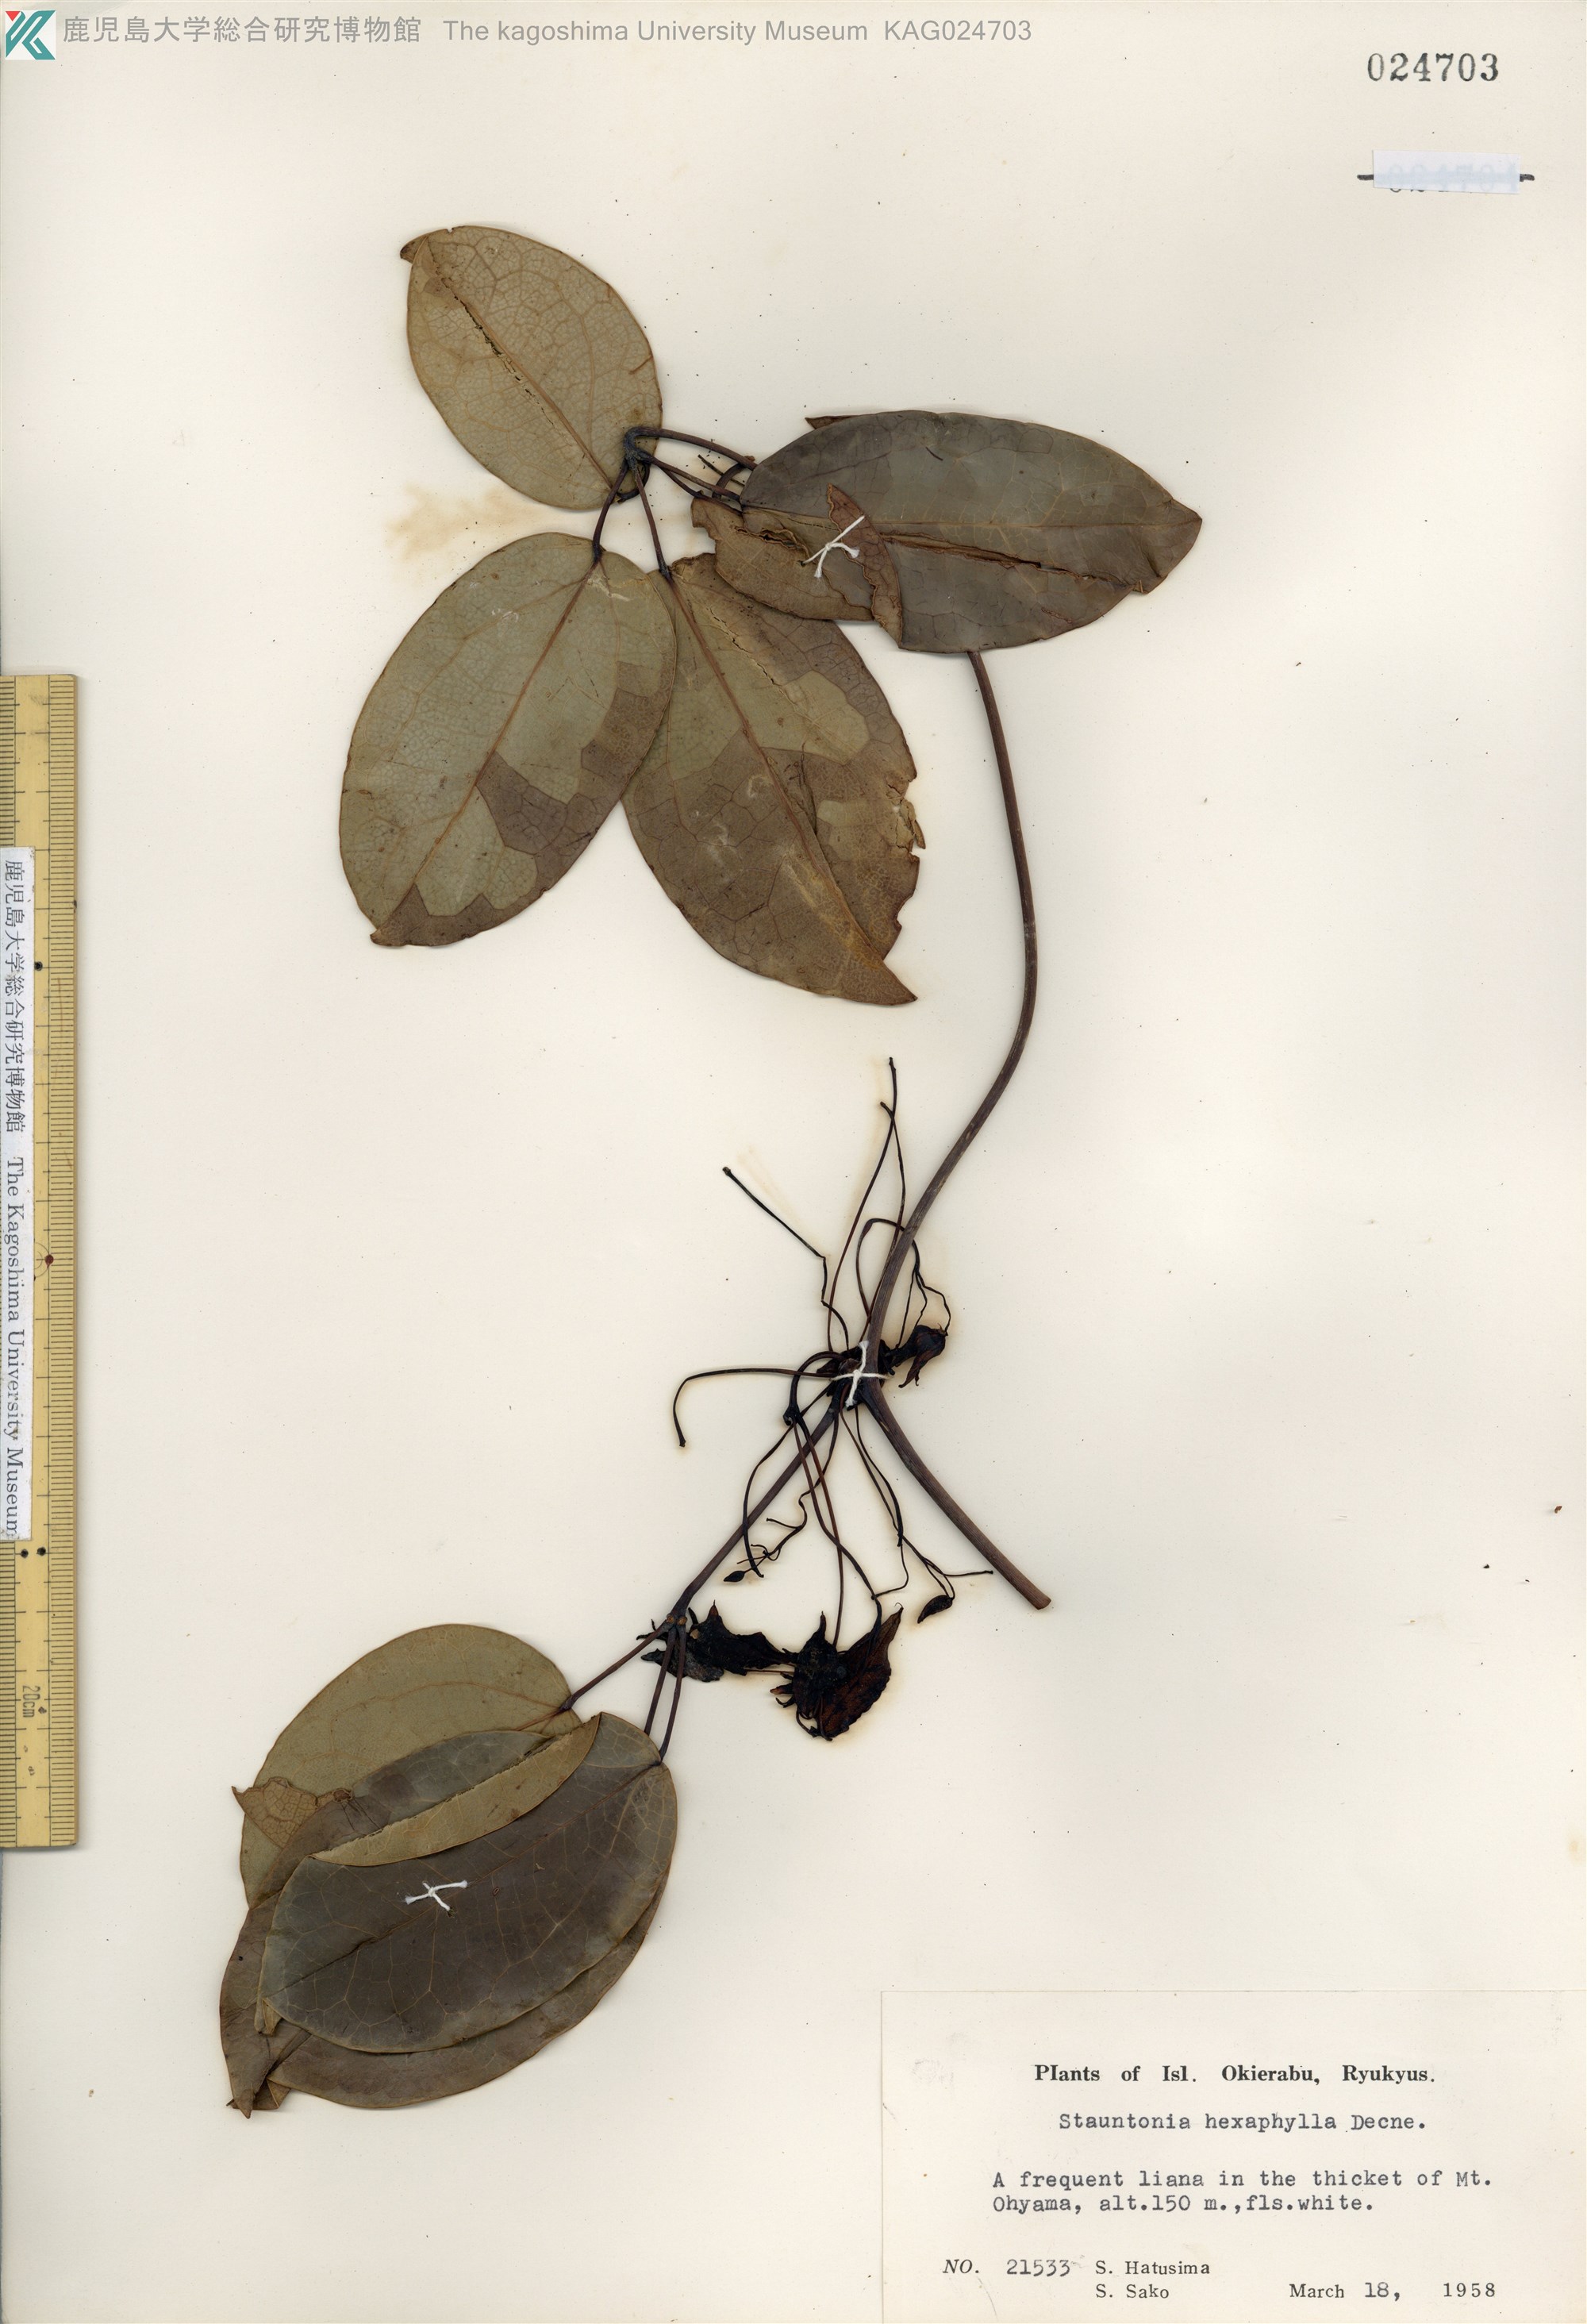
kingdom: Plantae
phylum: Tracheophyta
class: Magnoliopsida
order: Ranunculales
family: Lardizabalaceae
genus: Stauntonia
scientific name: Stauntonia hexaphylla
